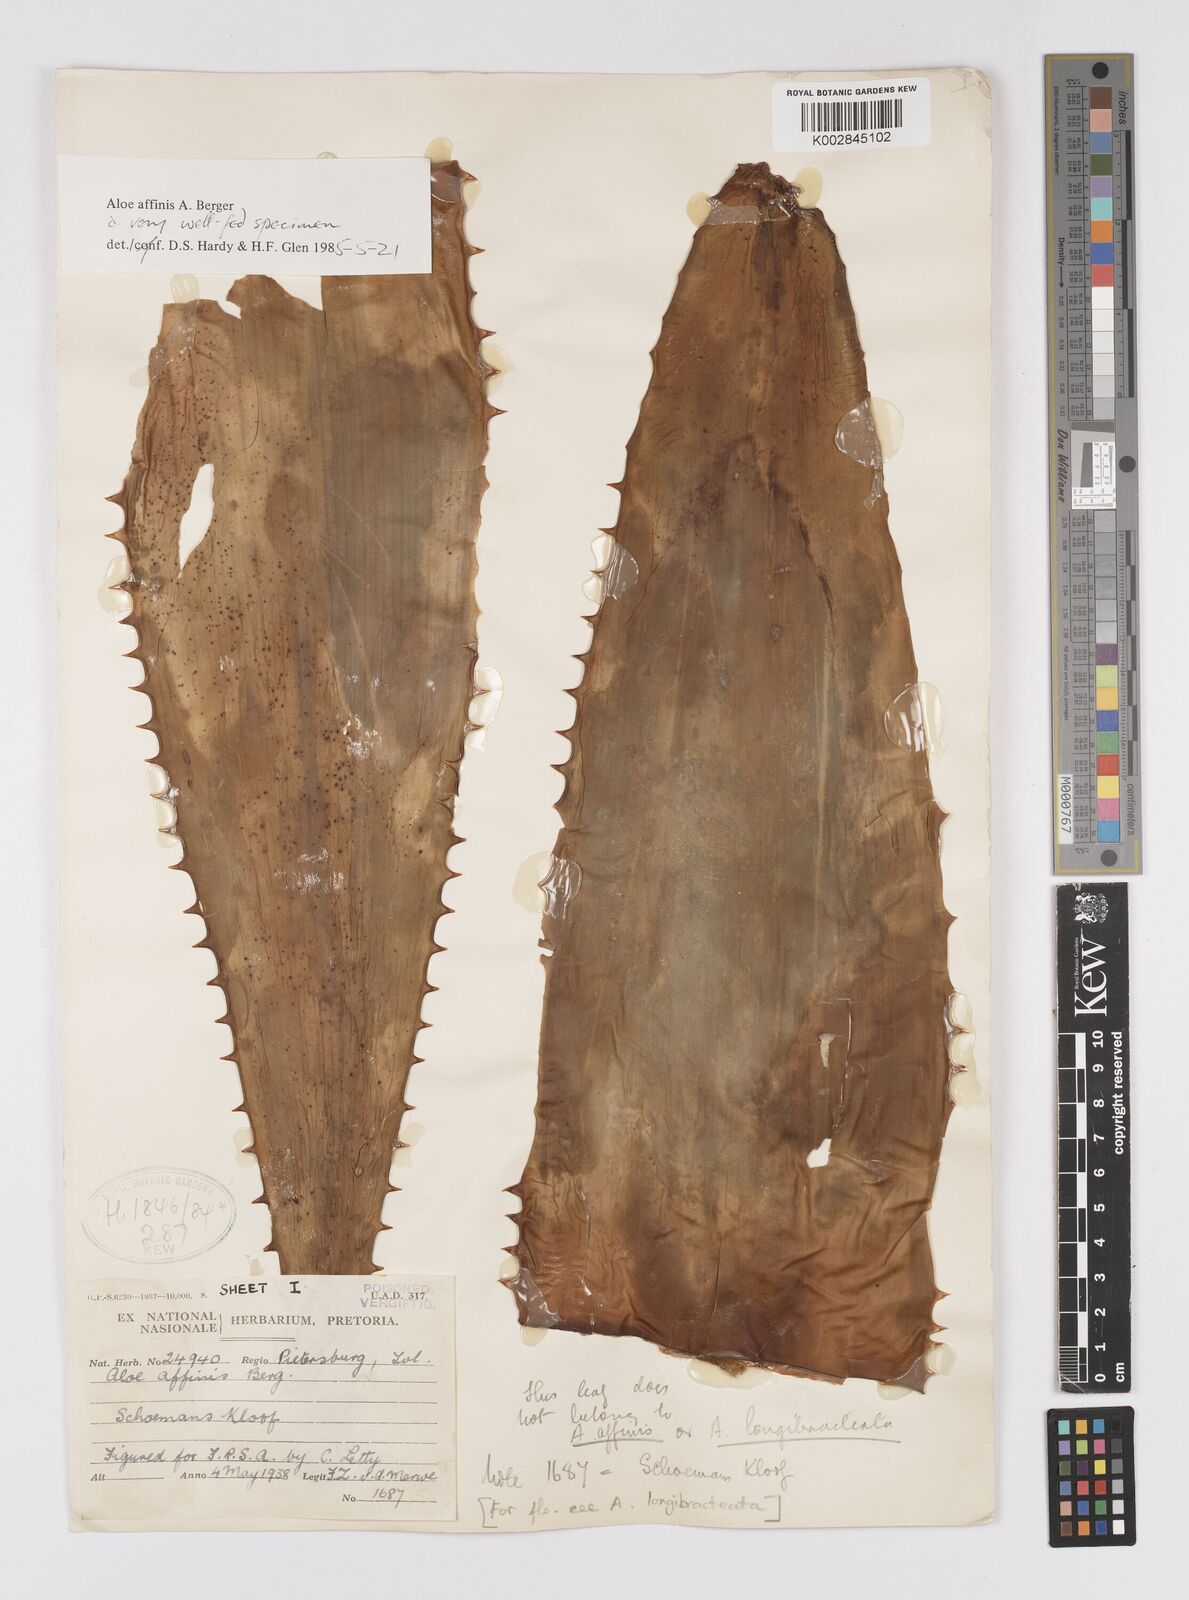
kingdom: Plantae
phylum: Tracheophyta
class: Liliopsida
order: Asparagales
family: Asphodelaceae
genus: Aloe
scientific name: Aloe affinis
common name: Spotted aloe
